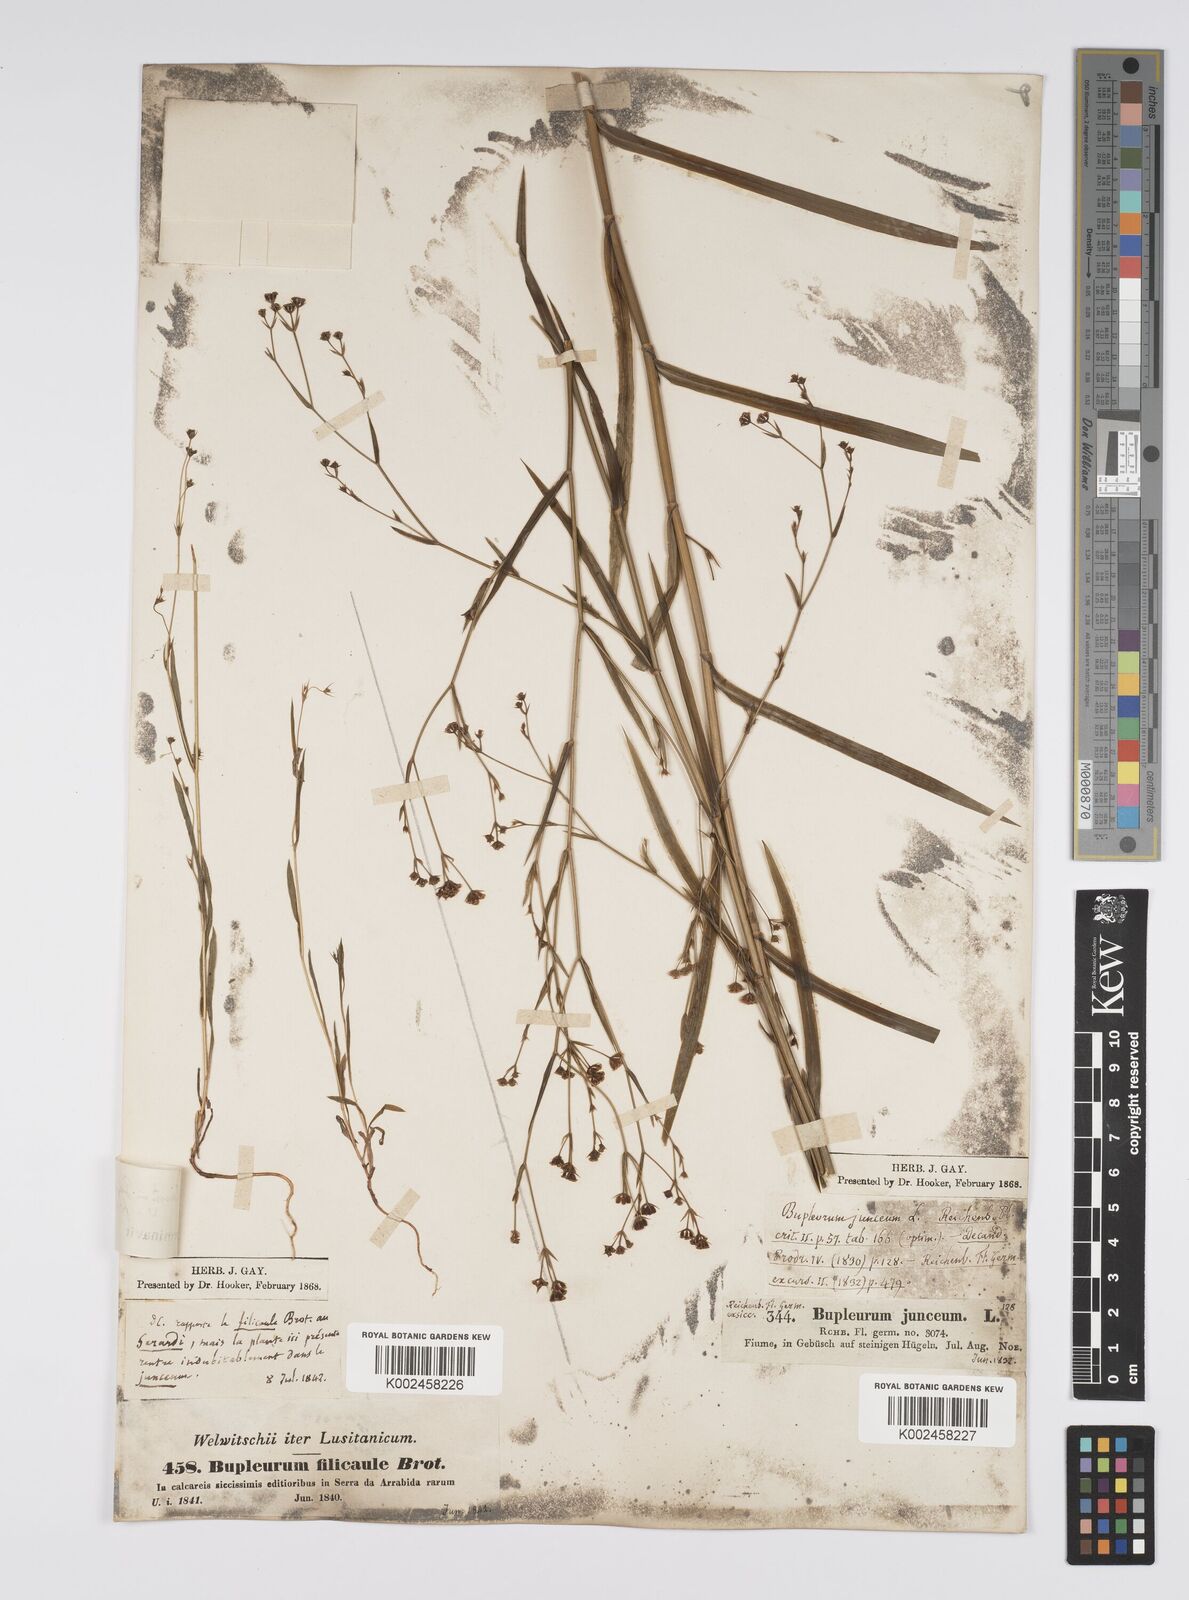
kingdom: Plantae
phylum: Tracheophyta
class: Magnoliopsida
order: Apiales
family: Apiaceae
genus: Bupleurum
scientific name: Bupleurum praealtum
